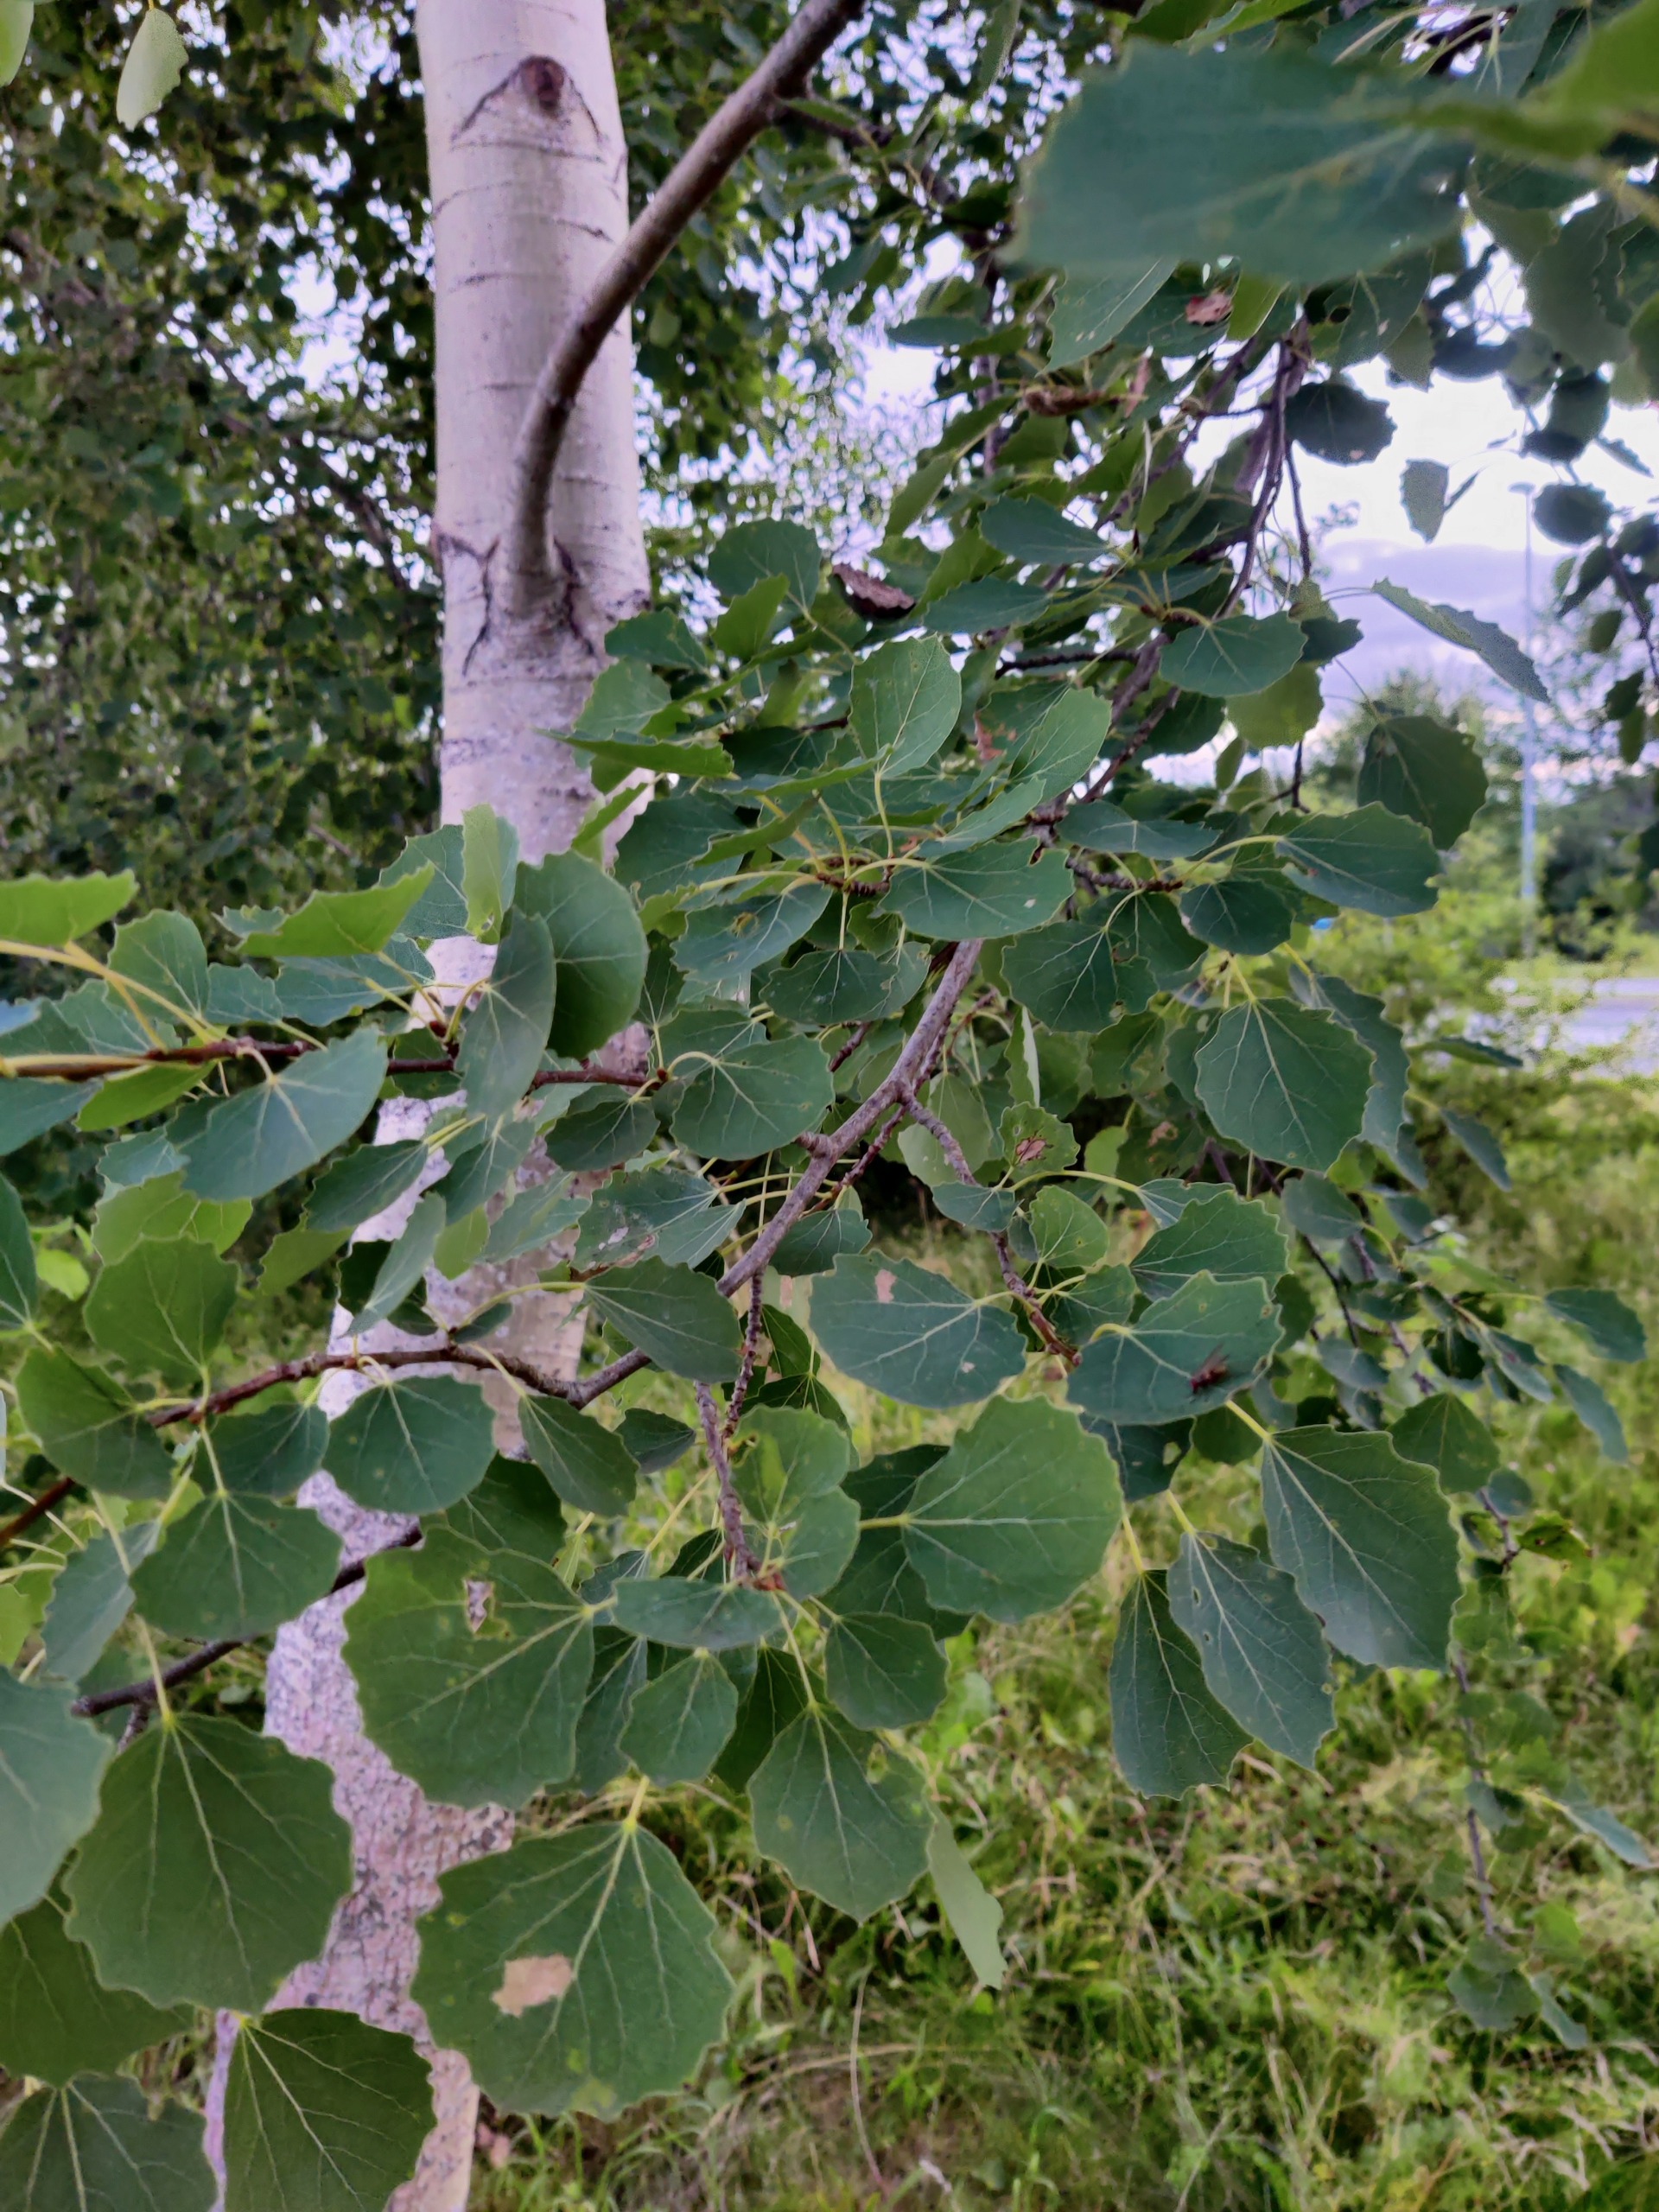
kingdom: Plantae
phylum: Tracheophyta
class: Magnoliopsida
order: Malpighiales
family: Salicaceae
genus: Populus
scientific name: Populus tremula
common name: Bævreasp
